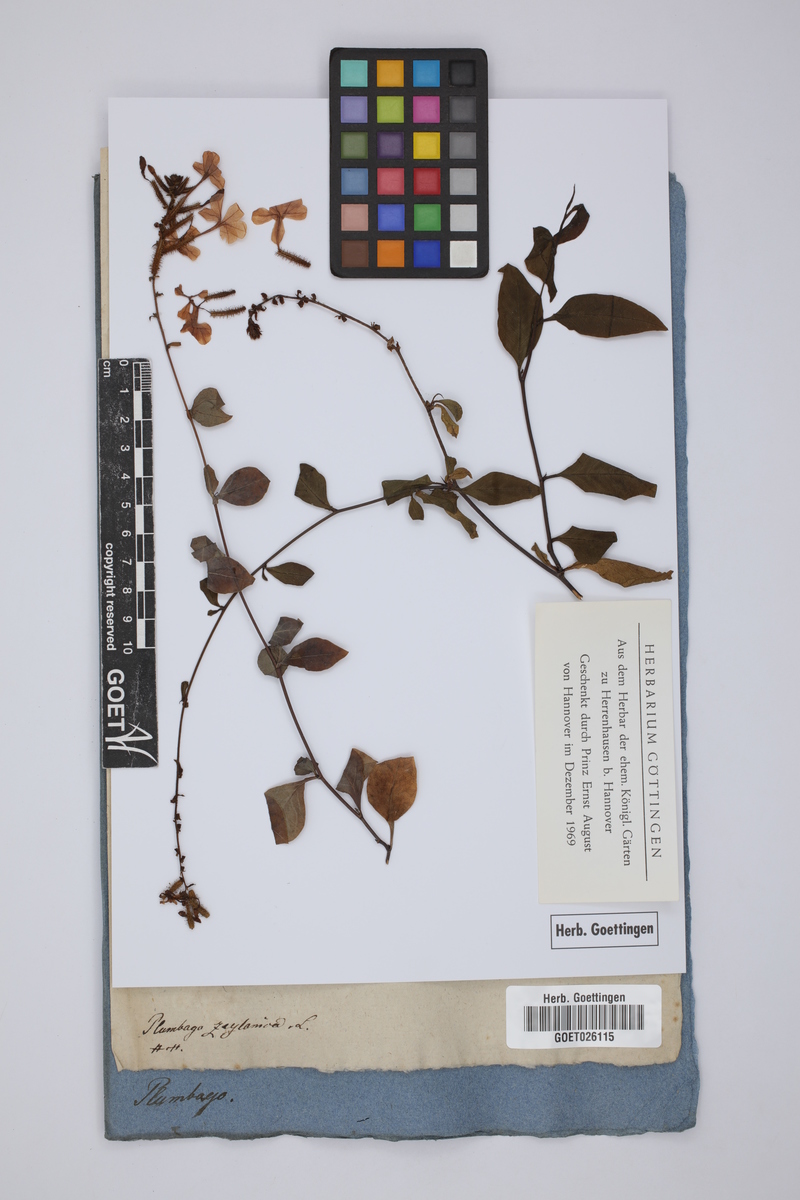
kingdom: Plantae
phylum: Tracheophyta
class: Magnoliopsida
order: Caryophyllales
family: Plumbaginaceae
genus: Plumbago
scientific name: Plumbago zeylanica
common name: Doctorbush
